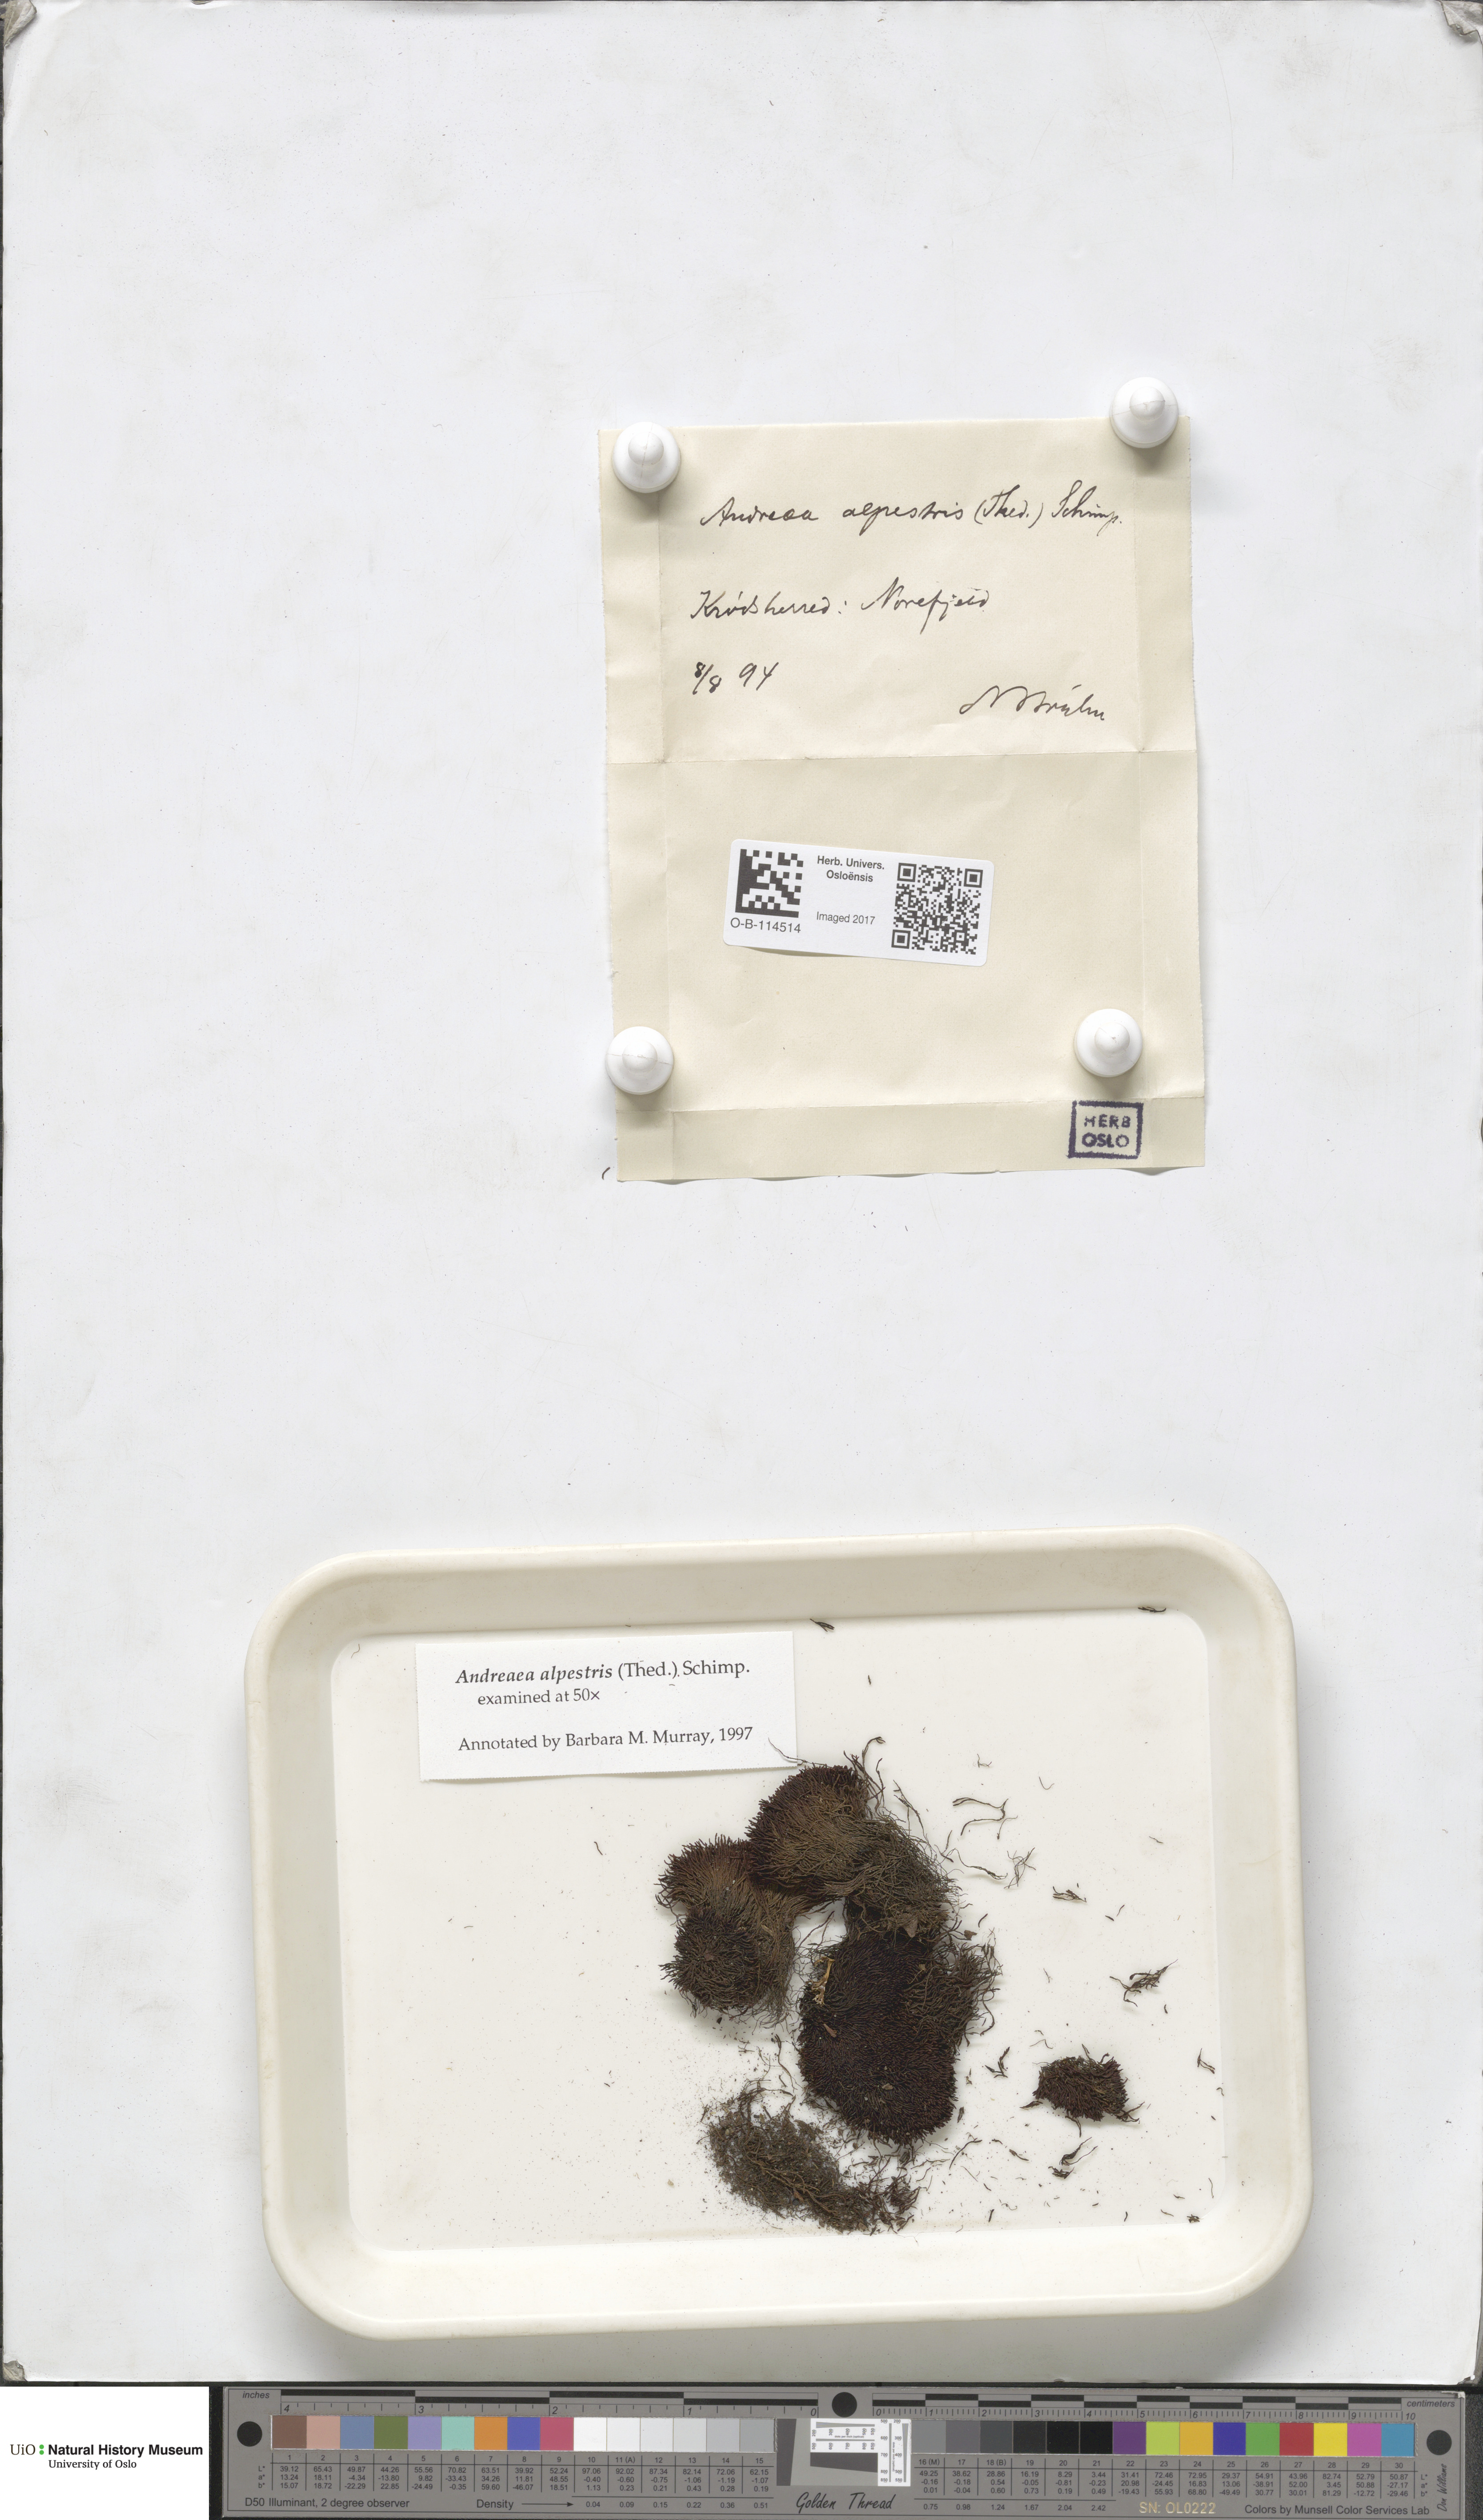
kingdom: Plantae
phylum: Bryophyta
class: Andreaeopsida
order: Andreaeales
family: Andreaeaceae
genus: Andreaea
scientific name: Andreaea alpestris
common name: Slender rock-moss
